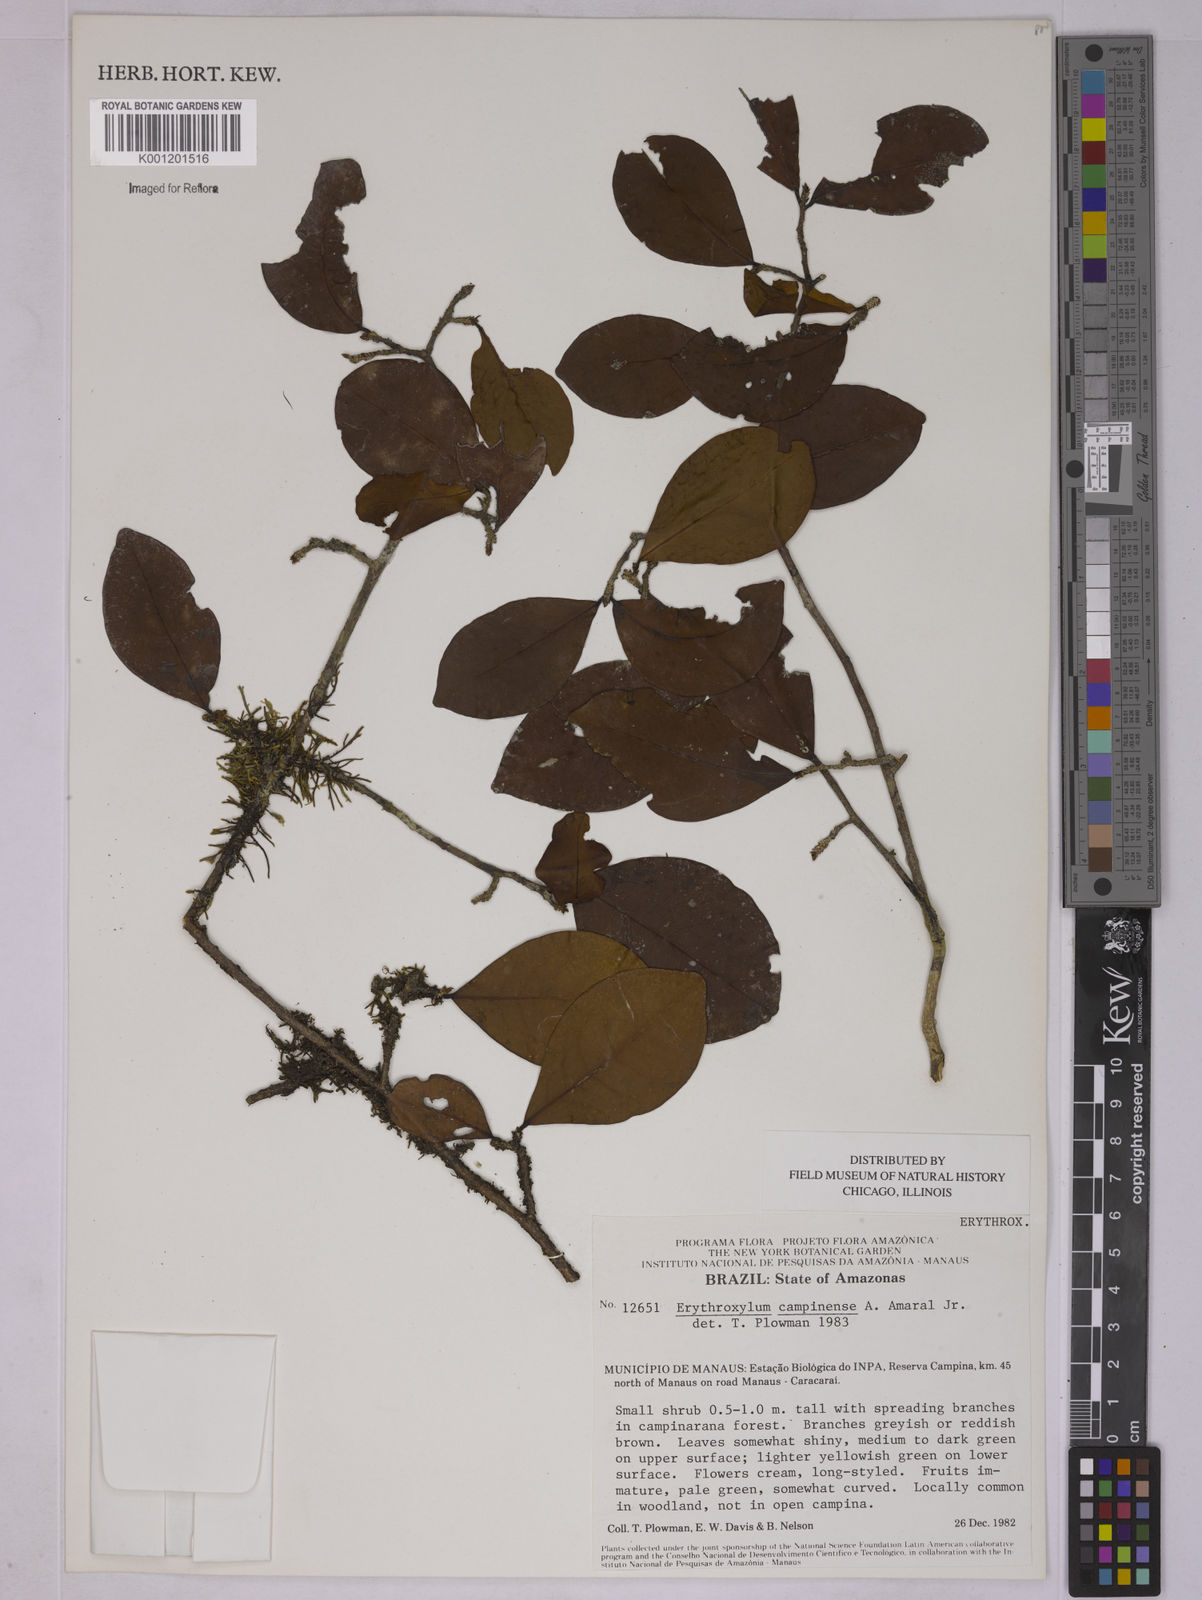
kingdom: Plantae
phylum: Tracheophyta
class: Magnoliopsida
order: Malpighiales
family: Erythroxylaceae
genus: Erythroxylum
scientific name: Erythroxylum campinense
